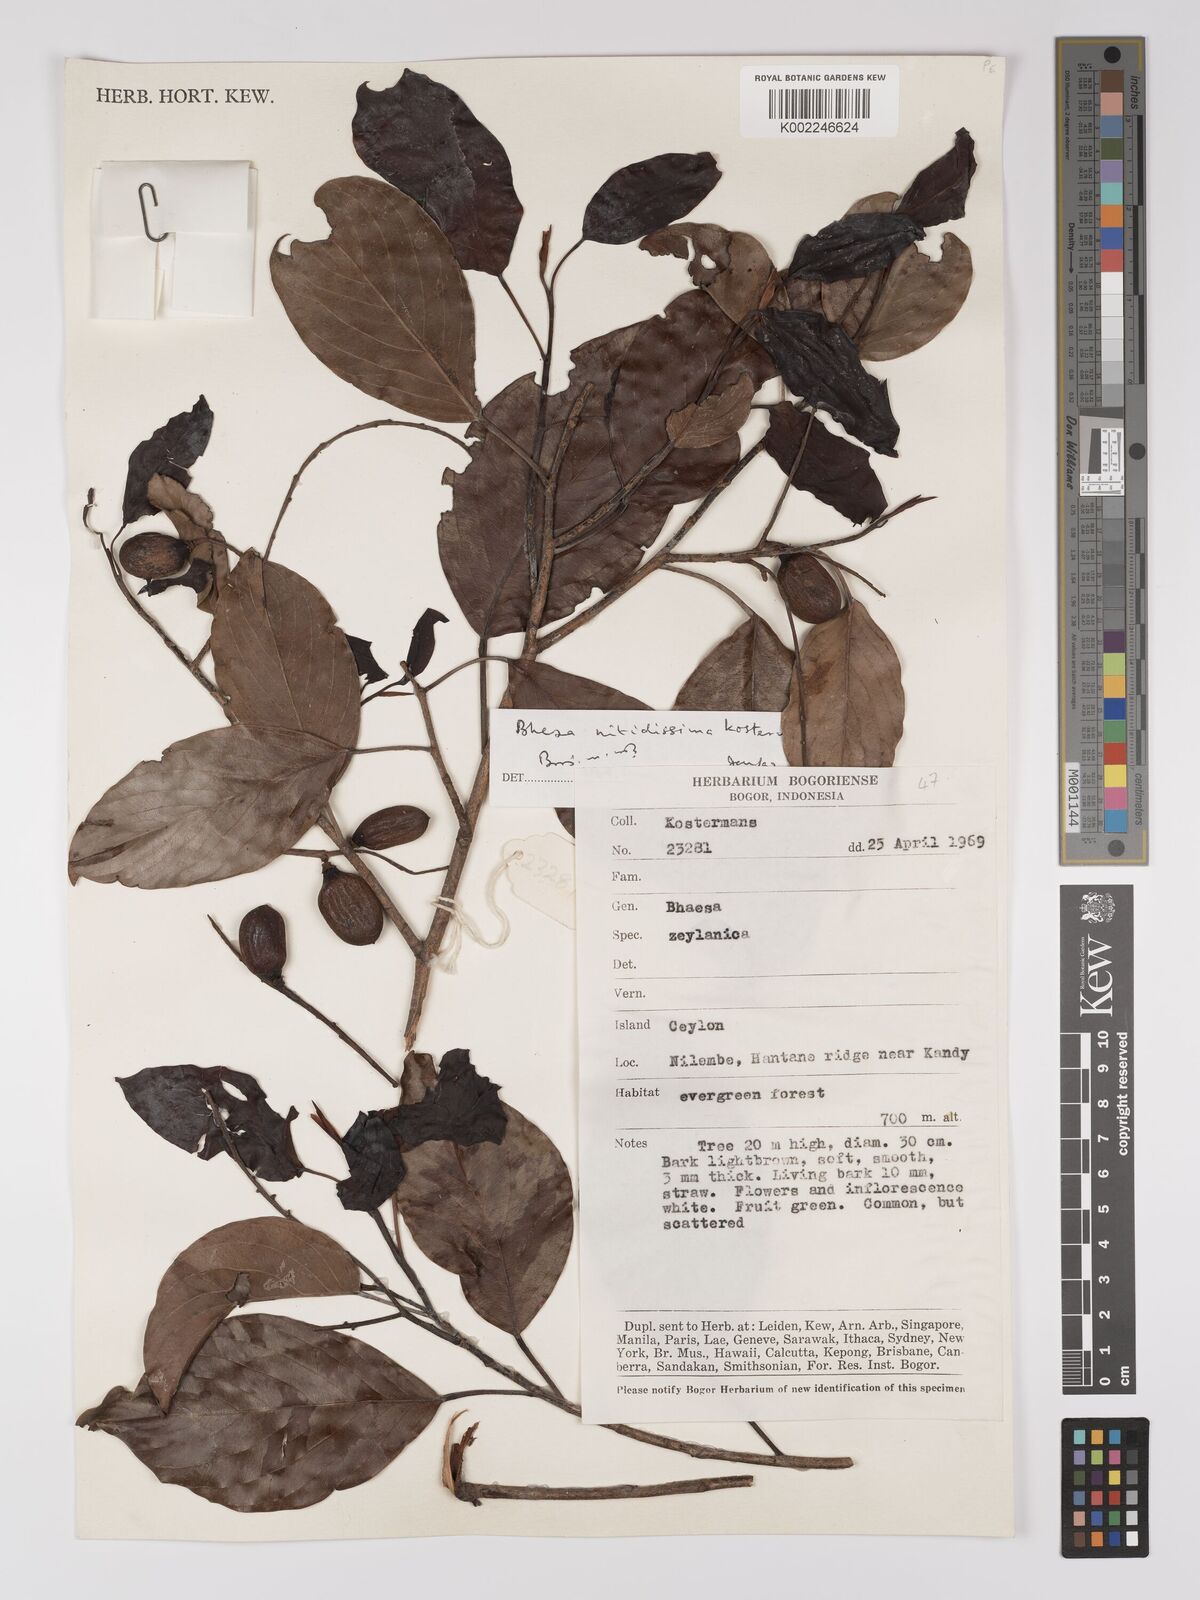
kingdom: Plantae
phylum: Tracheophyta
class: Magnoliopsida
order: Malpighiales
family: Centroplacaceae
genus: Bhesa
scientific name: Bhesa nitidissima
